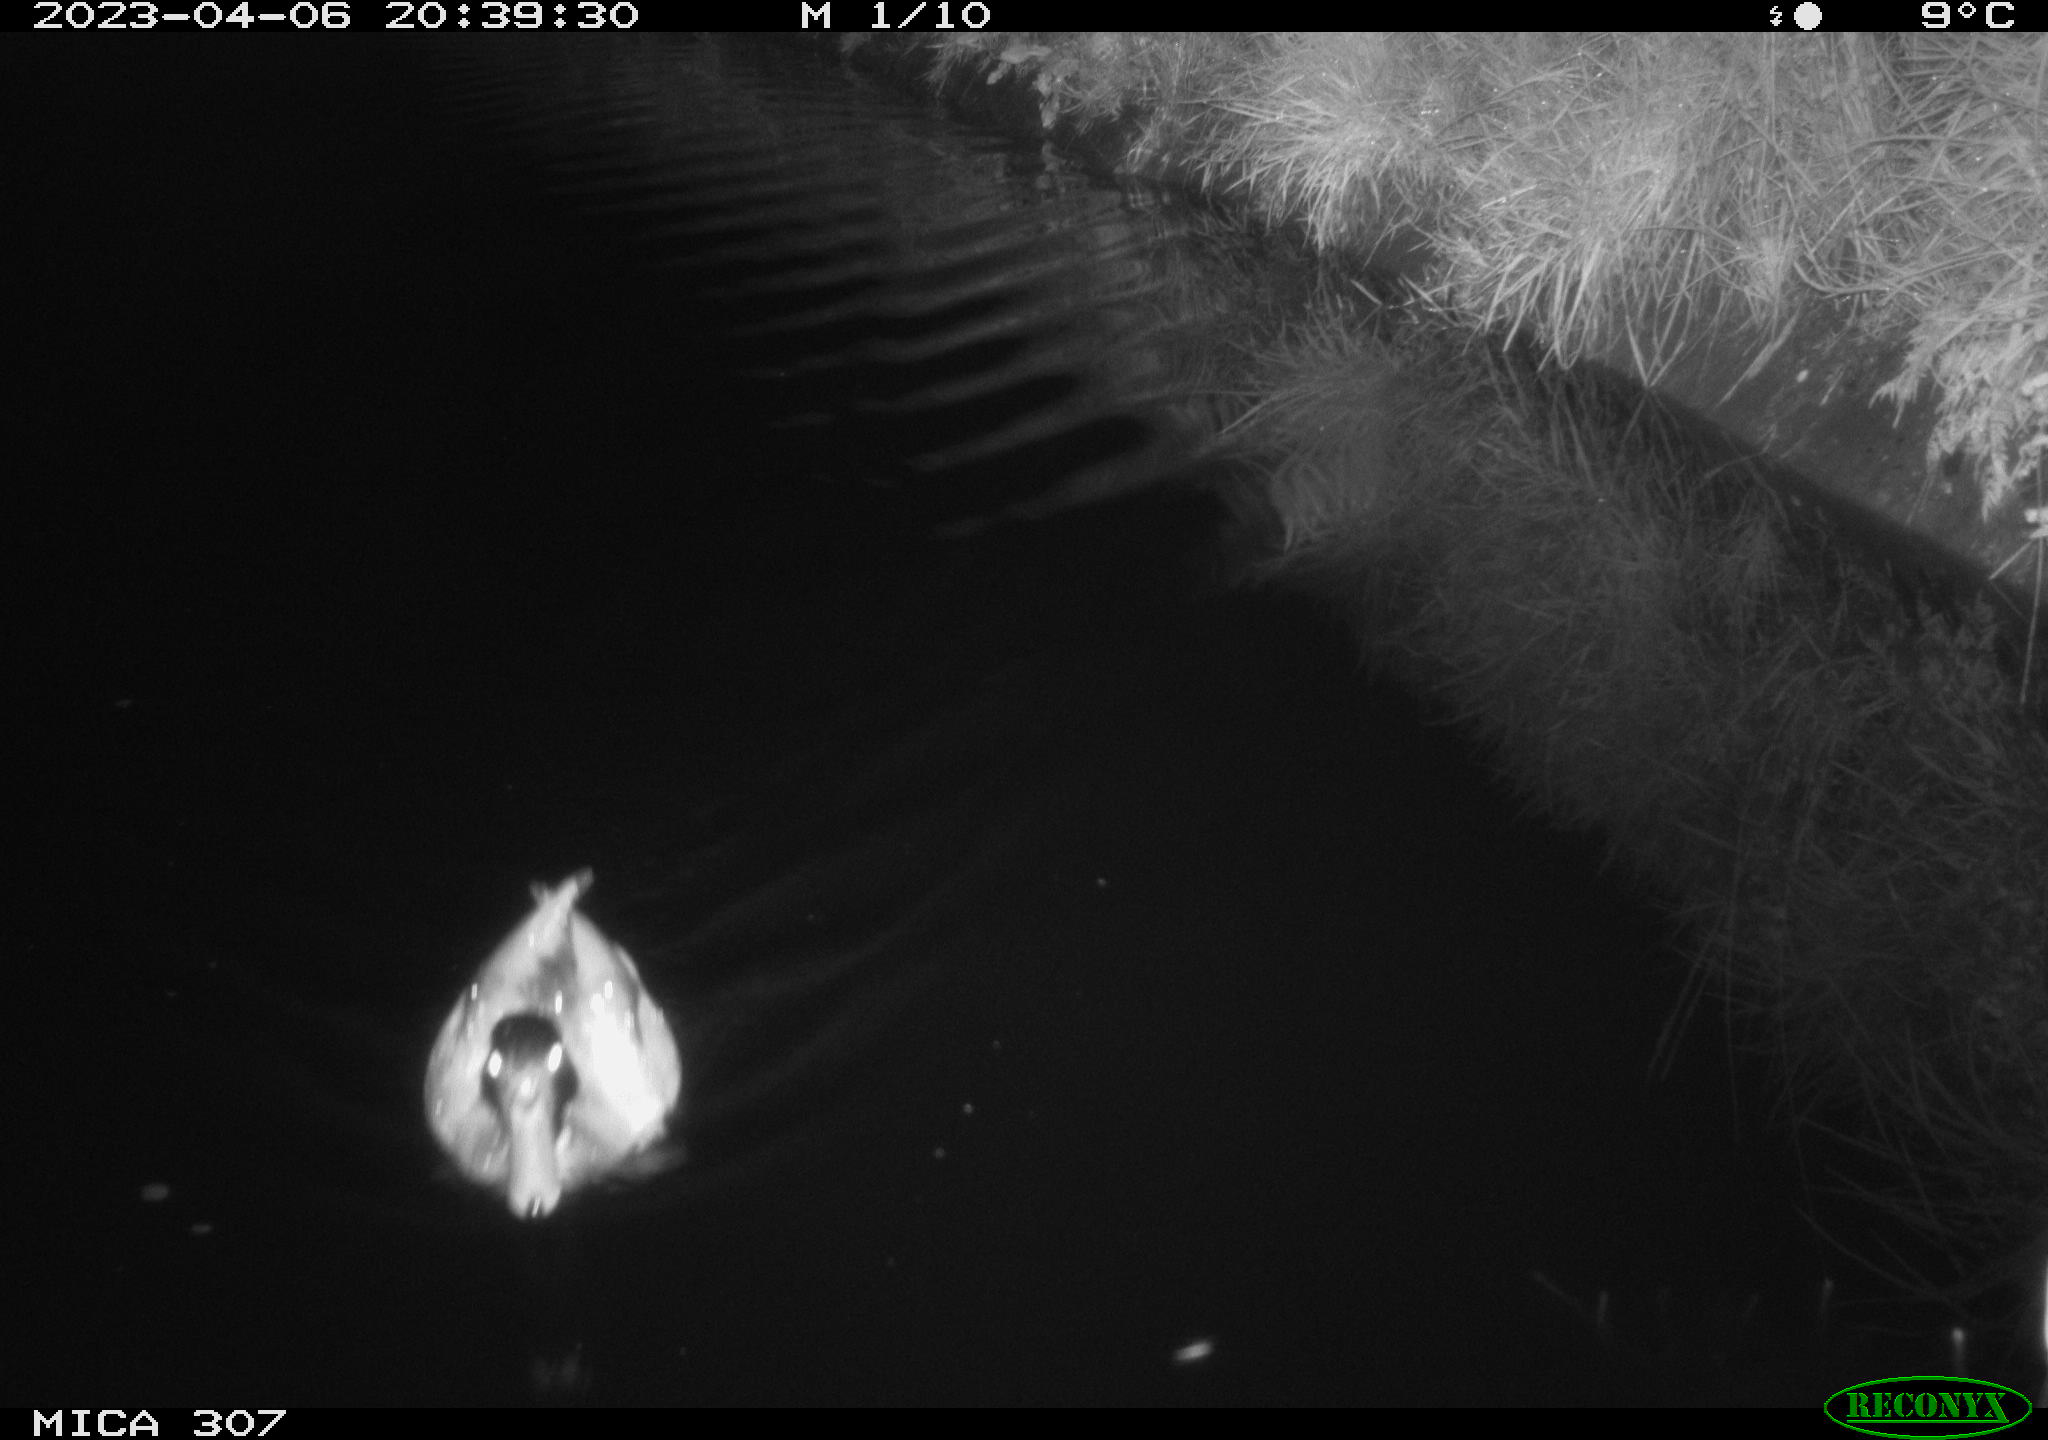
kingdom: Animalia
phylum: Chordata
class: Aves
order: Anseriformes
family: Anatidae
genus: Anas
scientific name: Anas
